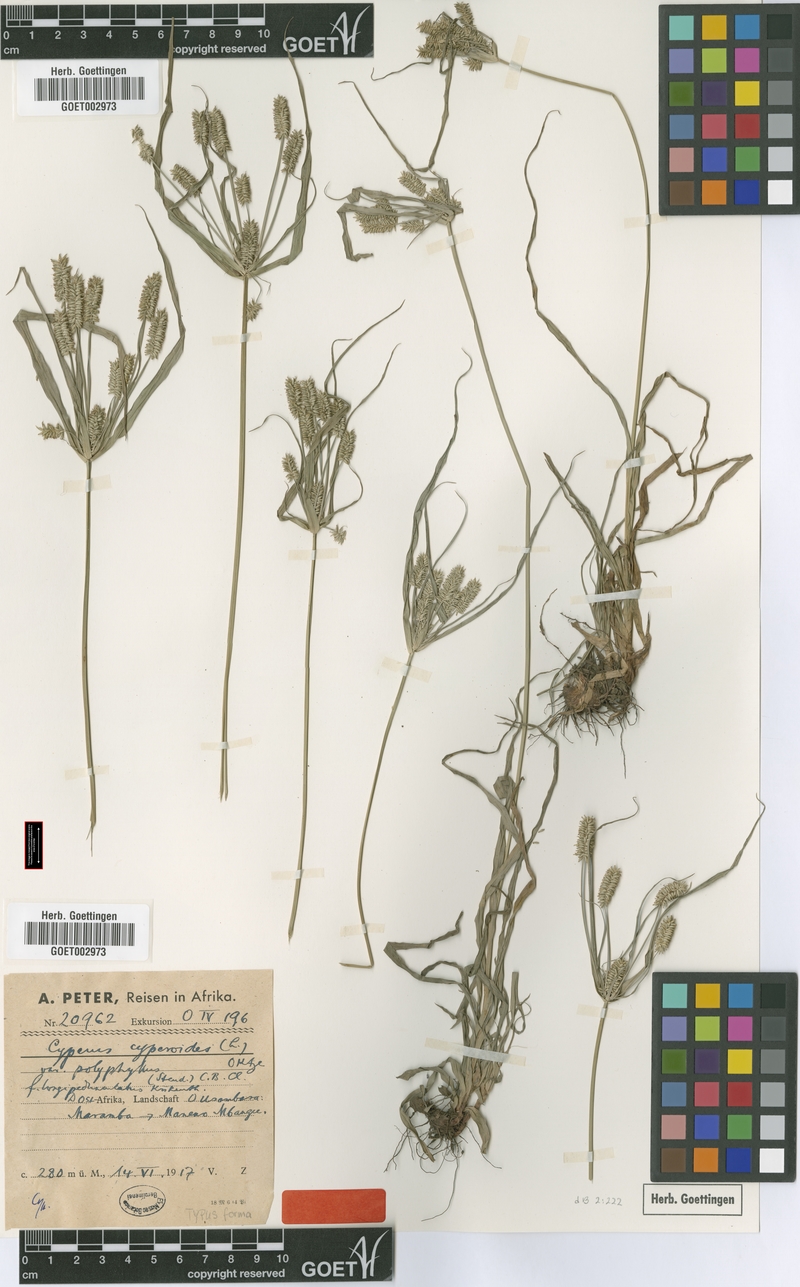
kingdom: Plantae
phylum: Tracheophyta
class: Liliopsida
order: Poales
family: Cyperaceae
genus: Cyperus
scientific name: Cyperus cyperoides
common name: Pacific island flat sedge
